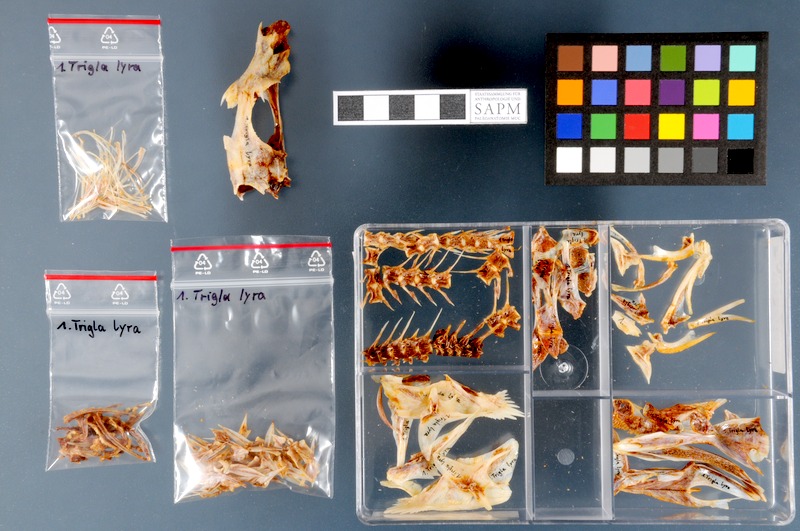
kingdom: Animalia
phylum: Chordata
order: Scorpaeniformes
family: Triglidae
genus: Trigla
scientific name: Trigla lyra
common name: Piper
